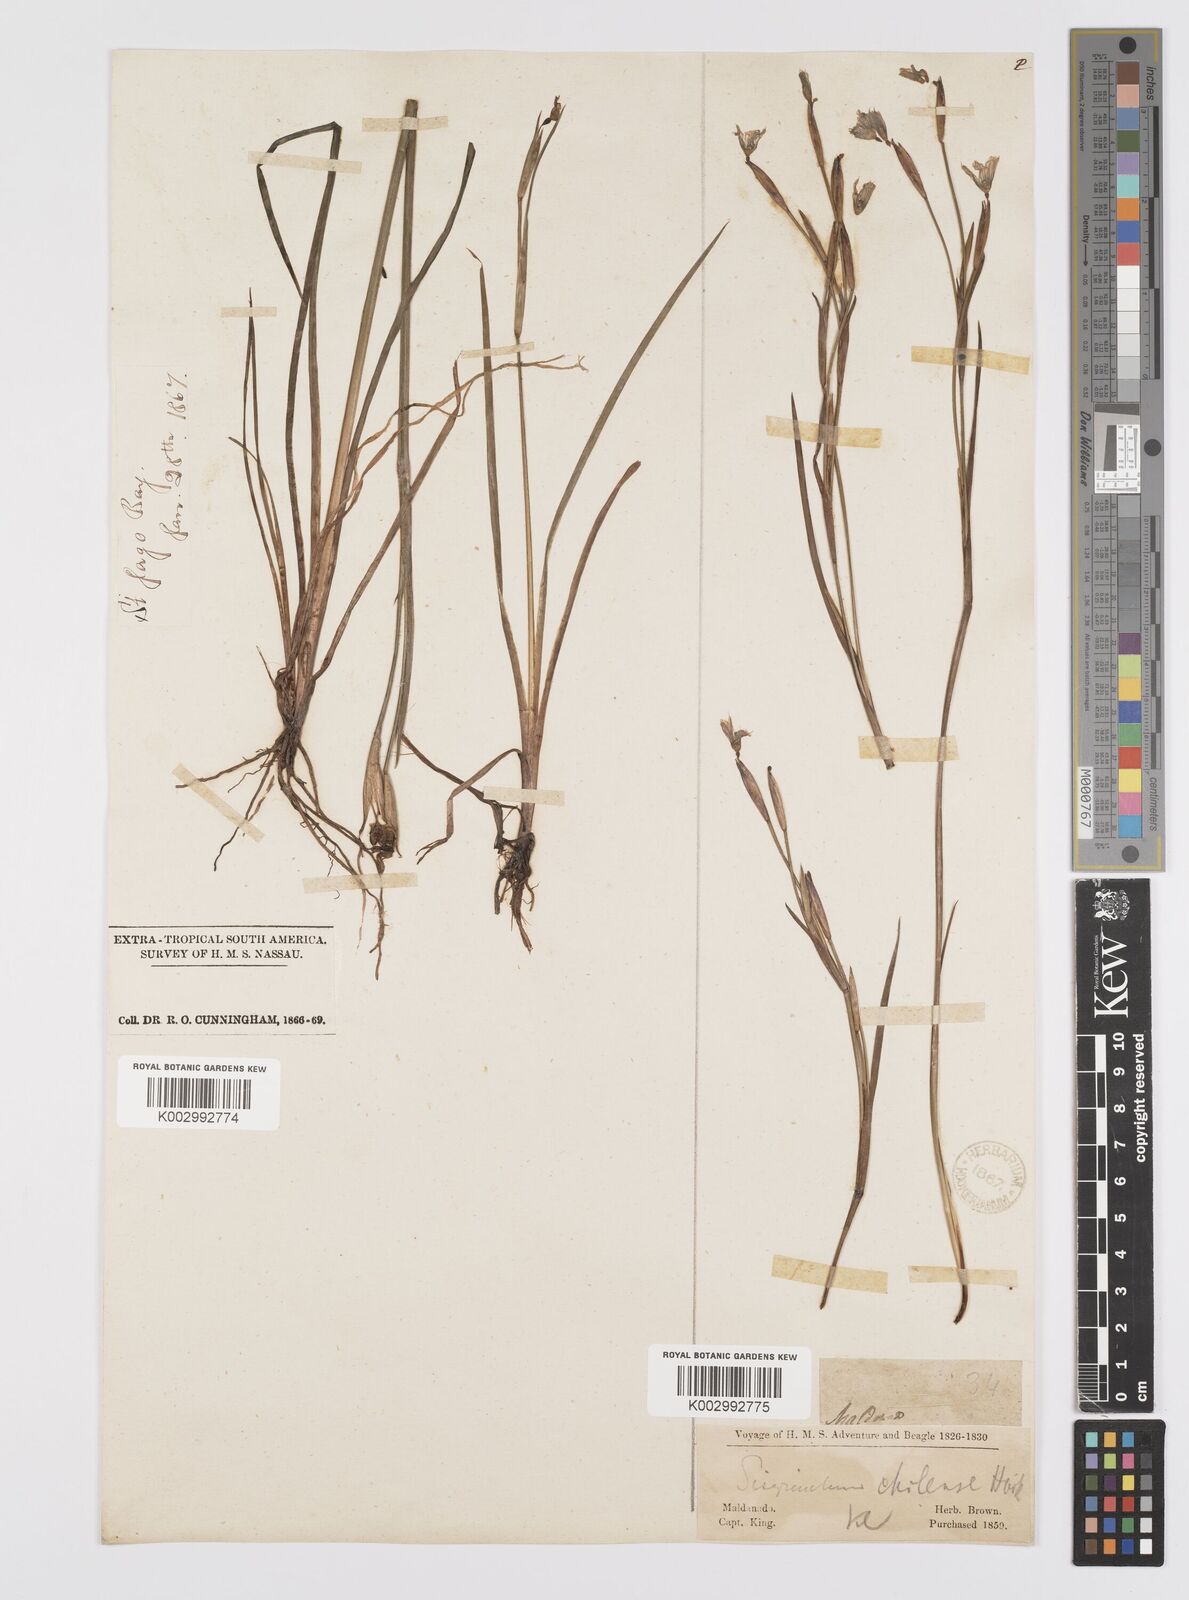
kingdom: Plantae
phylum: Tracheophyta
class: Liliopsida
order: Asparagales
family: Iridaceae
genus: Sisyrinchium
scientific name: Sisyrinchium chilense
